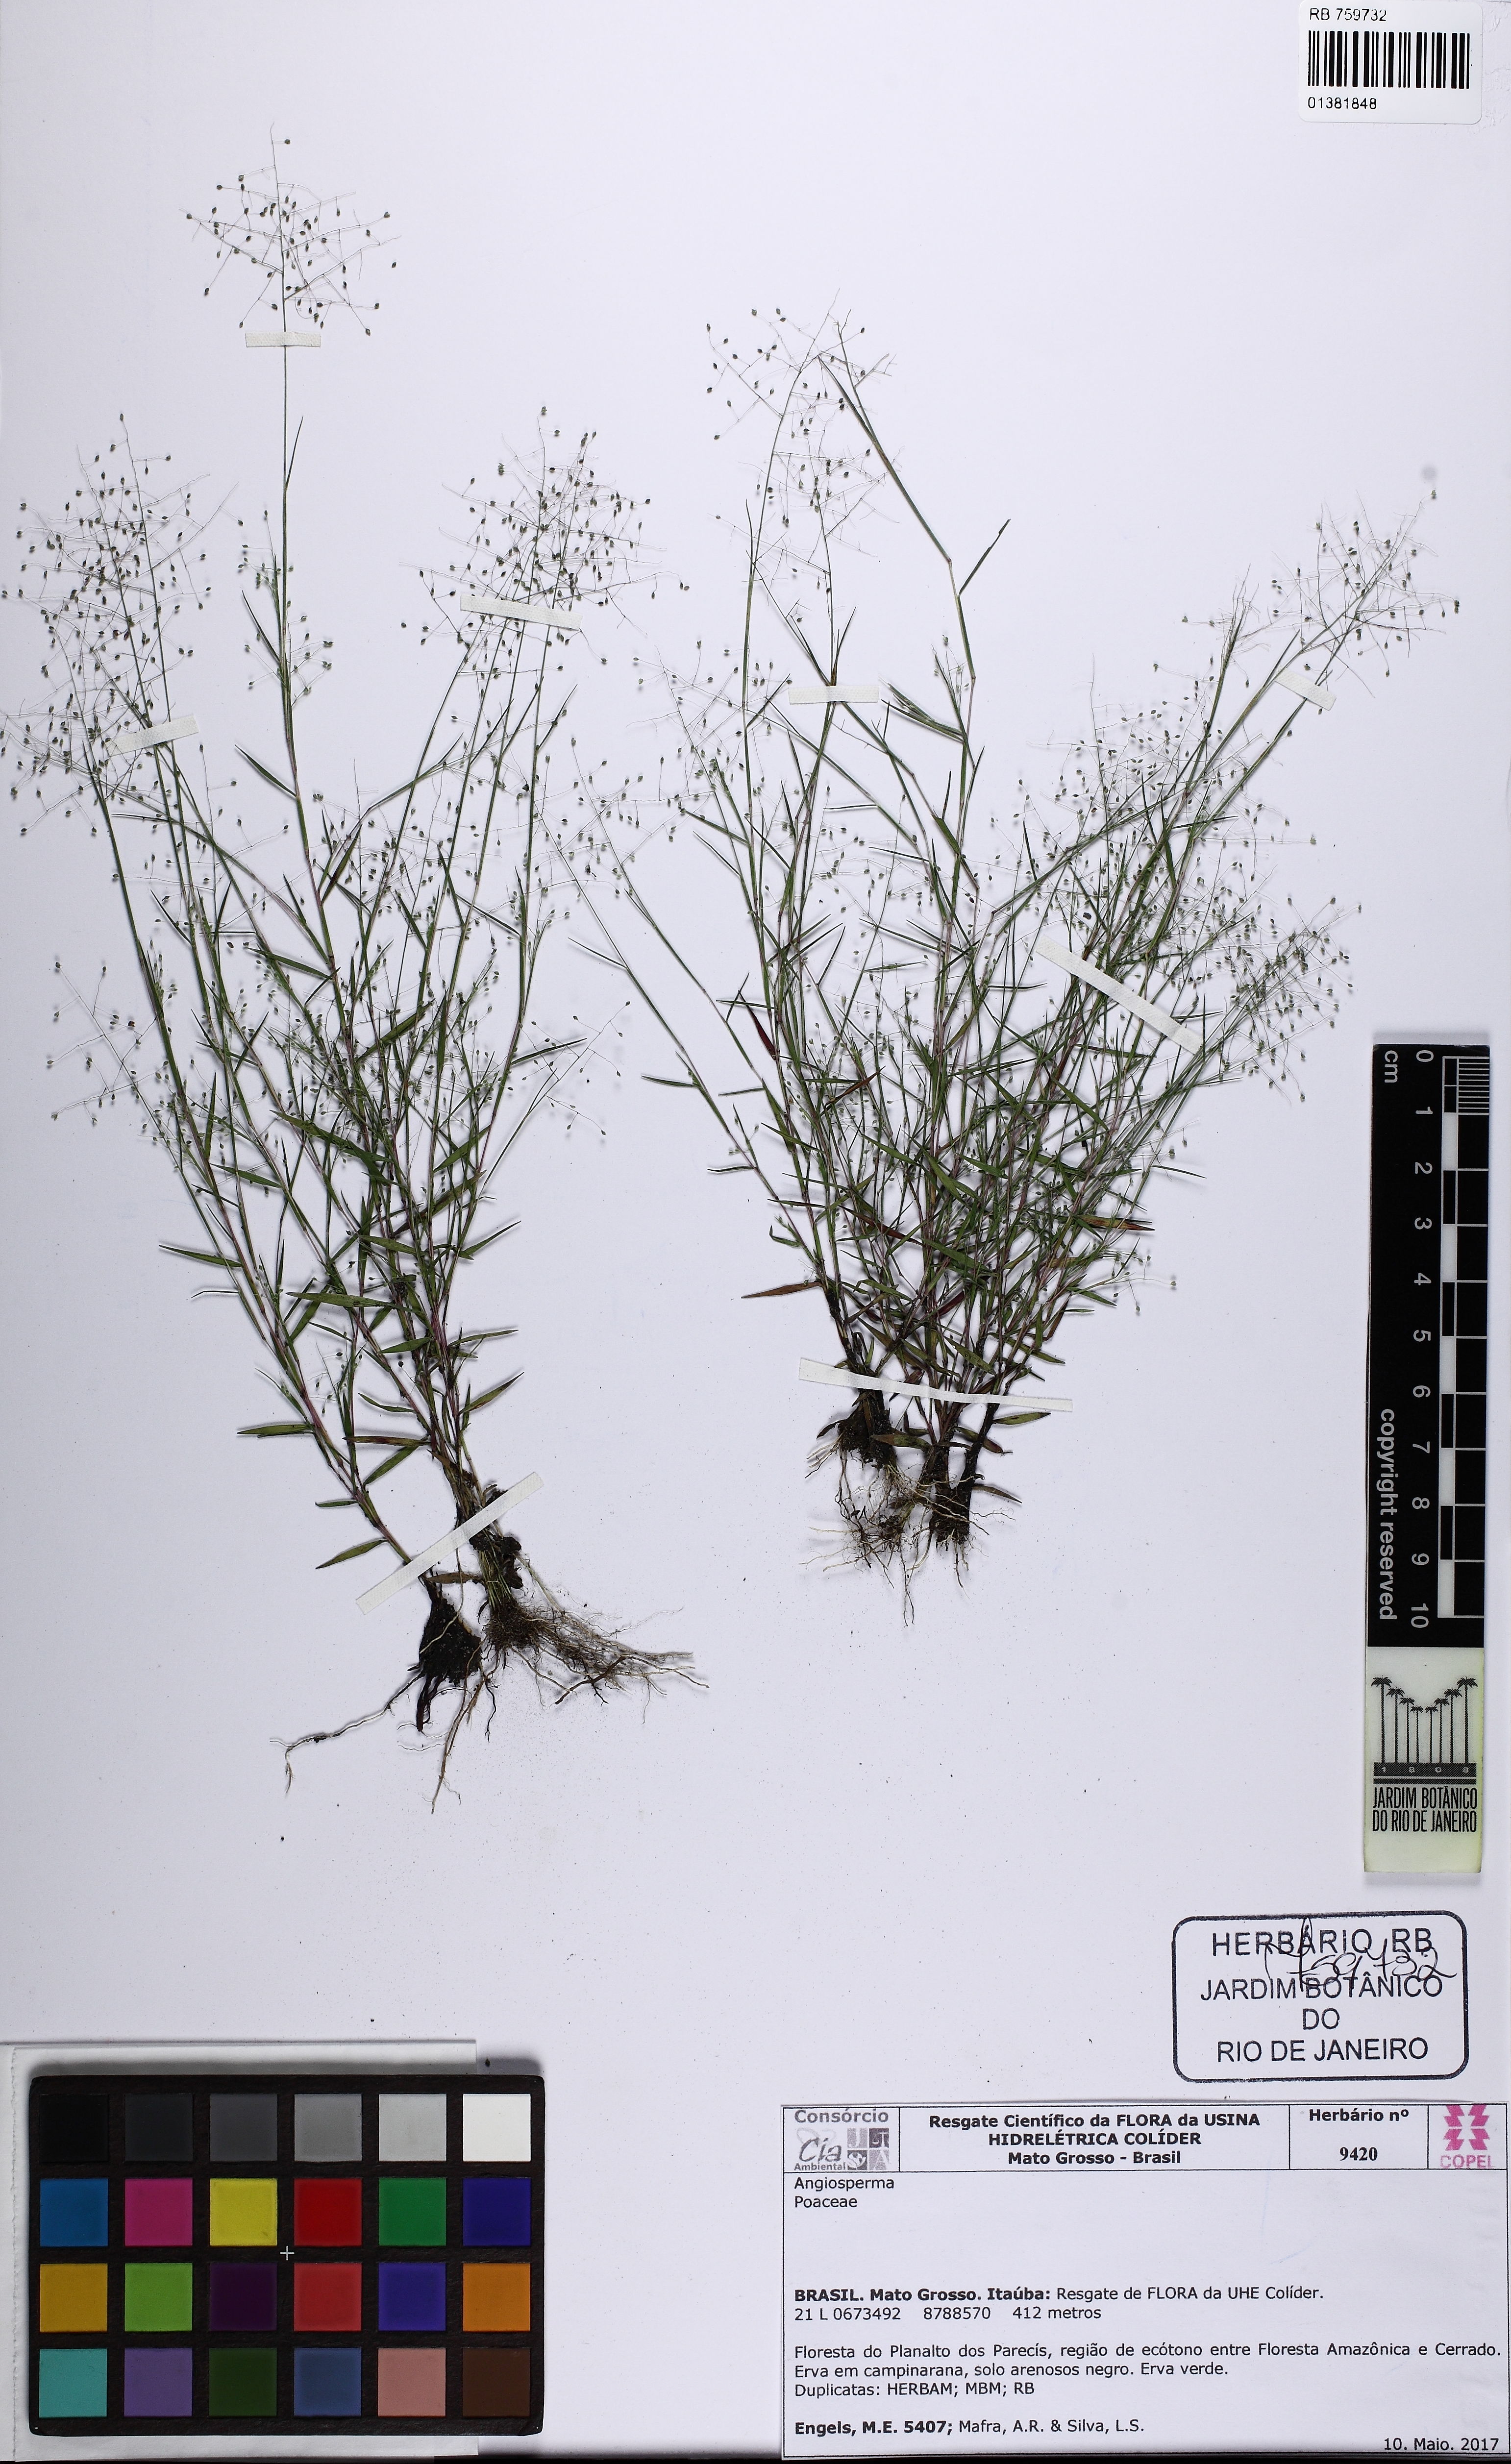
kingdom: Plantae
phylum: Tracheophyta
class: Liliopsida
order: Poales
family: Poaceae
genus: Trichanthecium
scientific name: Trichanthecium
